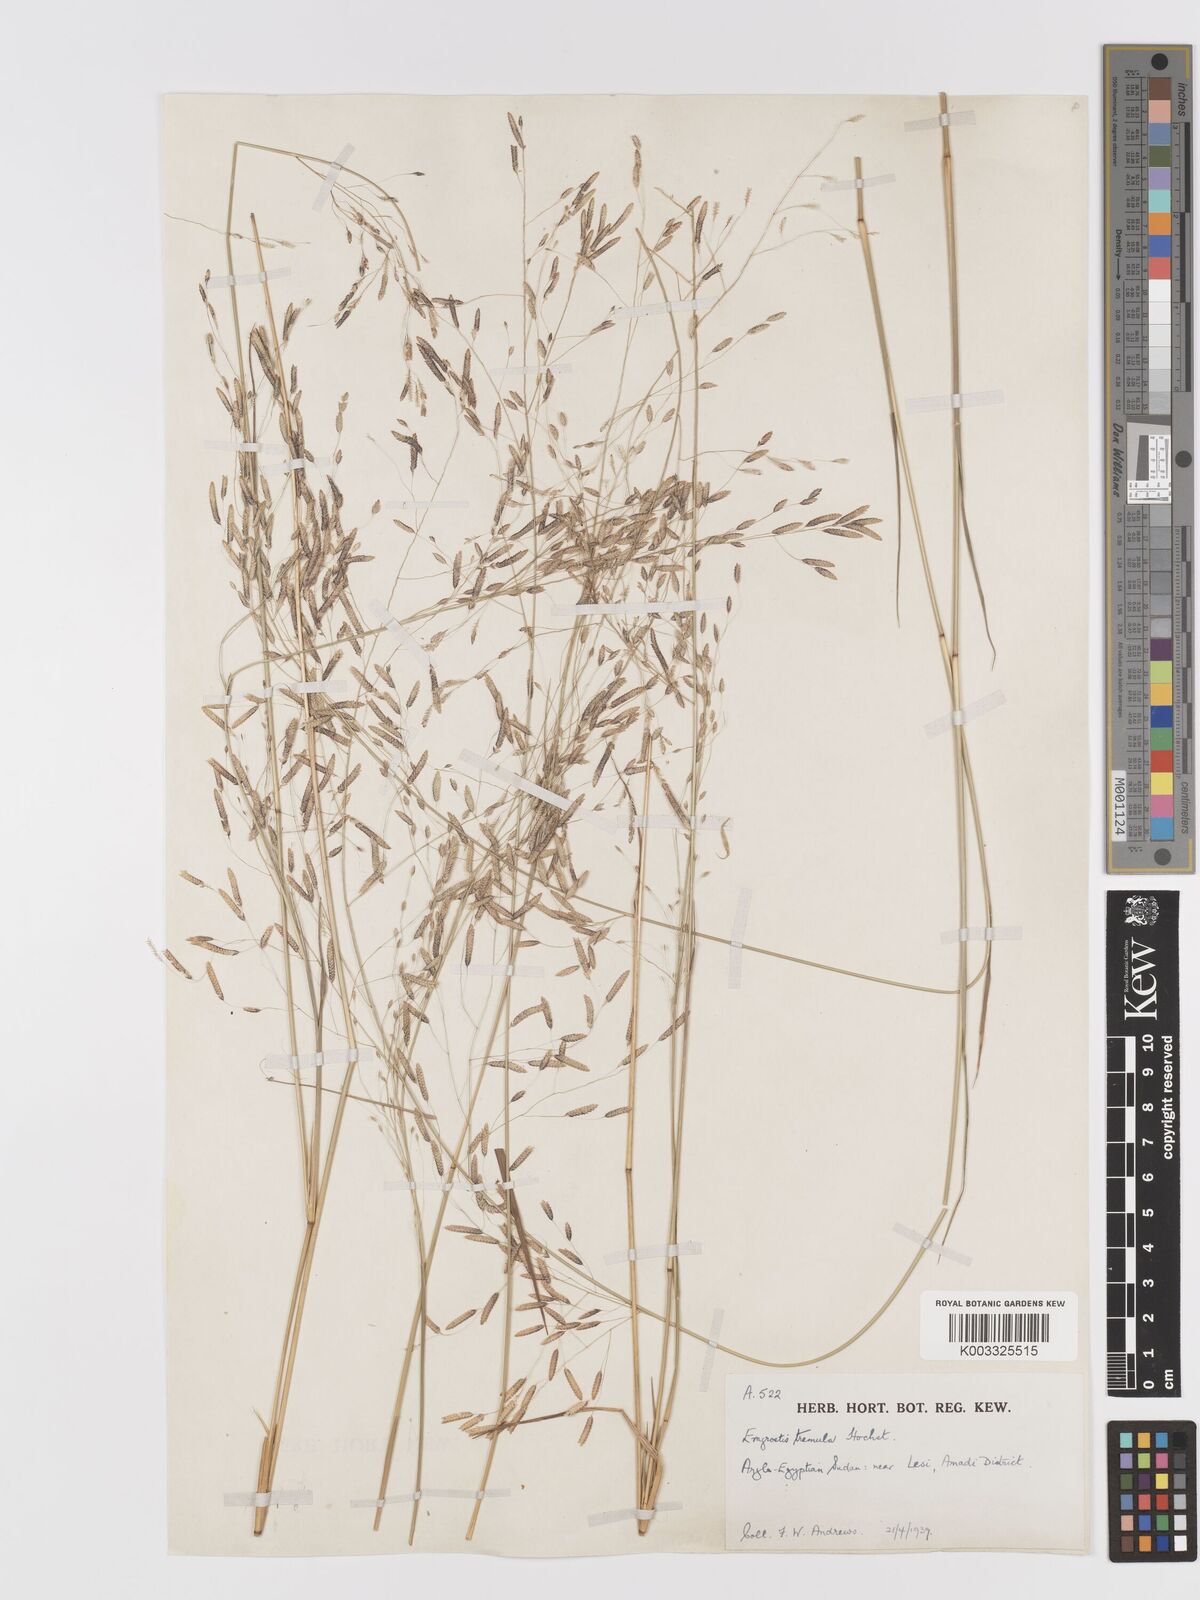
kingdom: Plantae
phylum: Tracheophyta
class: Liliopsida
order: Poales
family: Poaceae
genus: Eragrostis
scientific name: Eragrostis tremula
